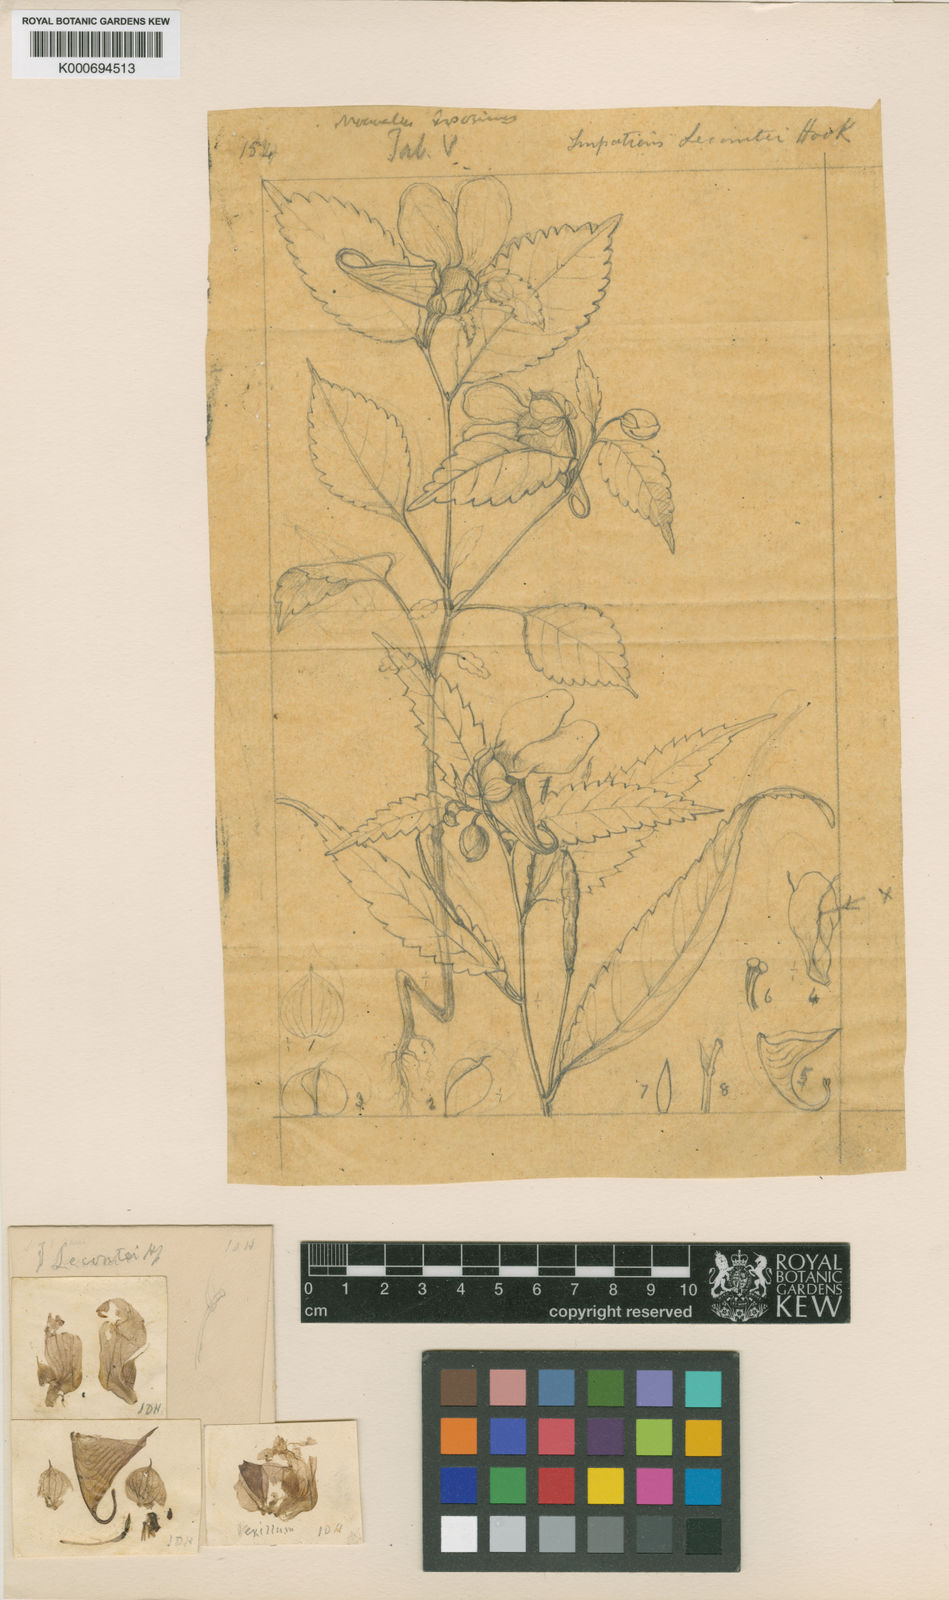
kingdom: Plantae
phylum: Tracheophyta
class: Magnoliopsida
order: Ericales
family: Balsaminaceae
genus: Impatiens
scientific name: Impatiens lecomtei
